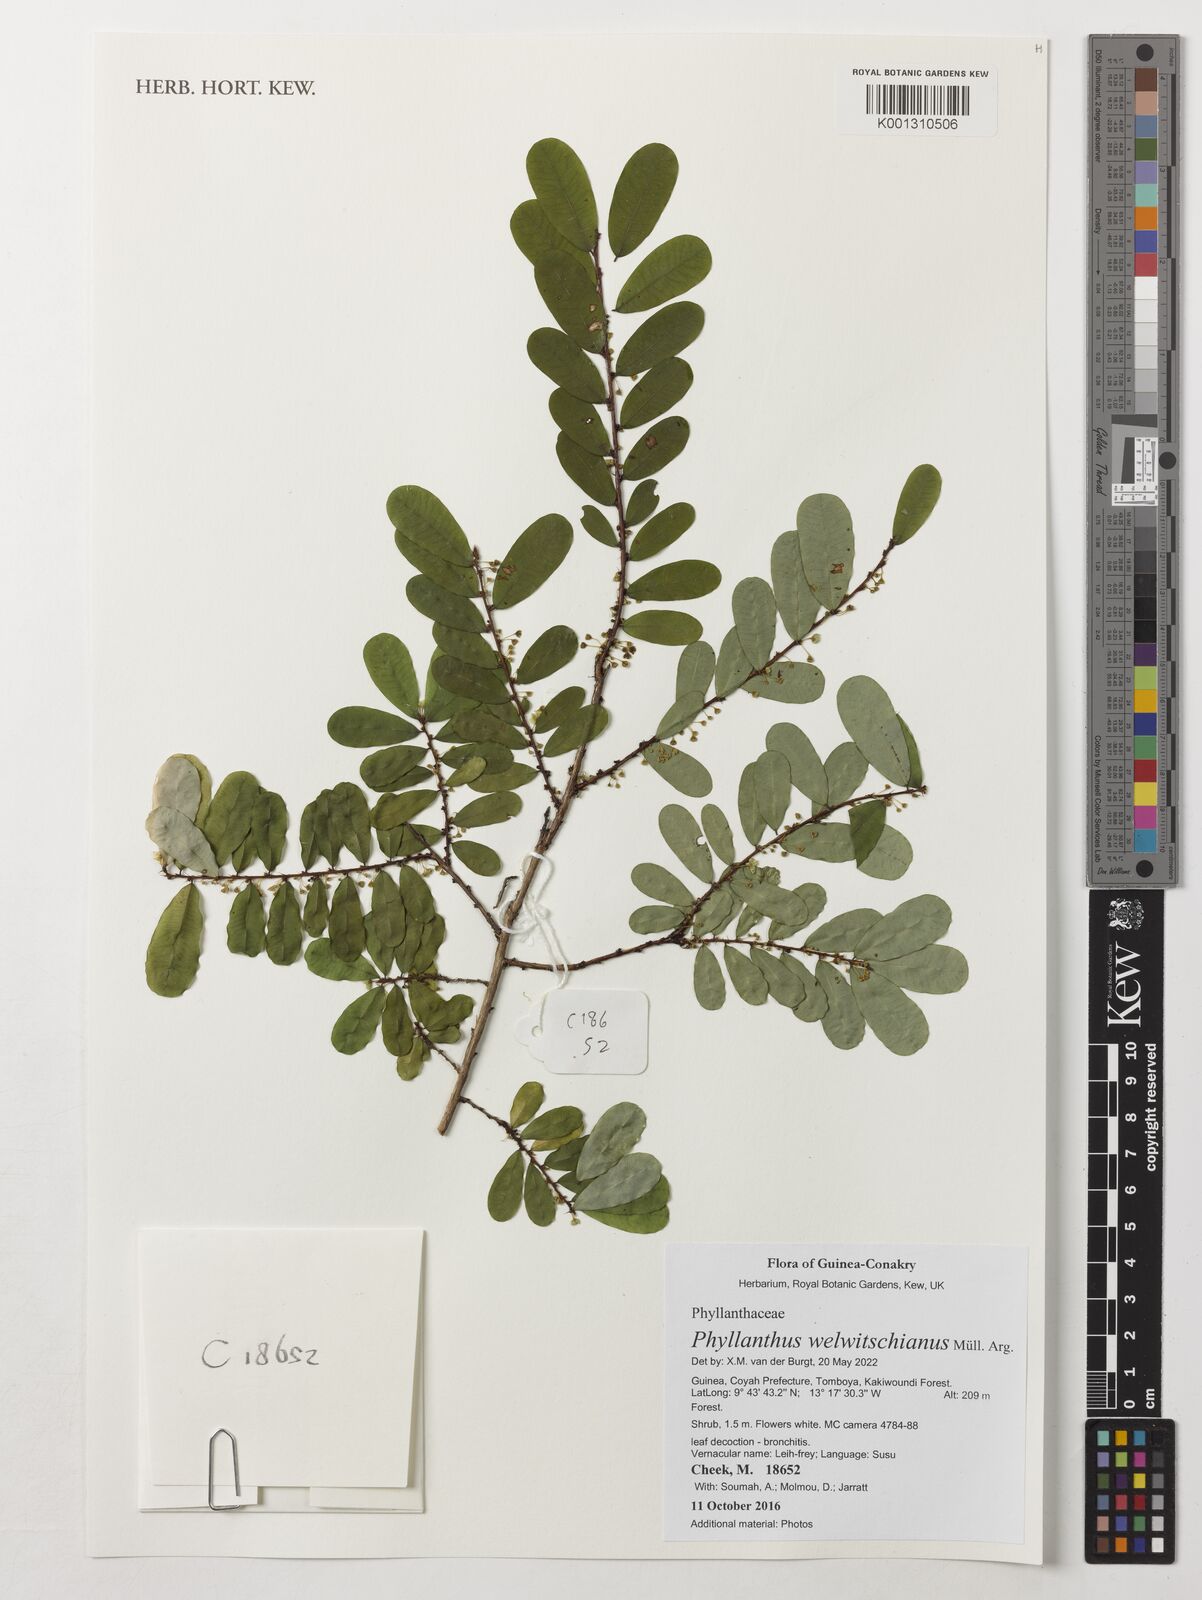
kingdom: Plantae
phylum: Tracheophyta
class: Magnoliopsida
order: Malpighiales
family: Phyllanthaceae
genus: Phyllanthus
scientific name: Phyllanthus welwitschianus
